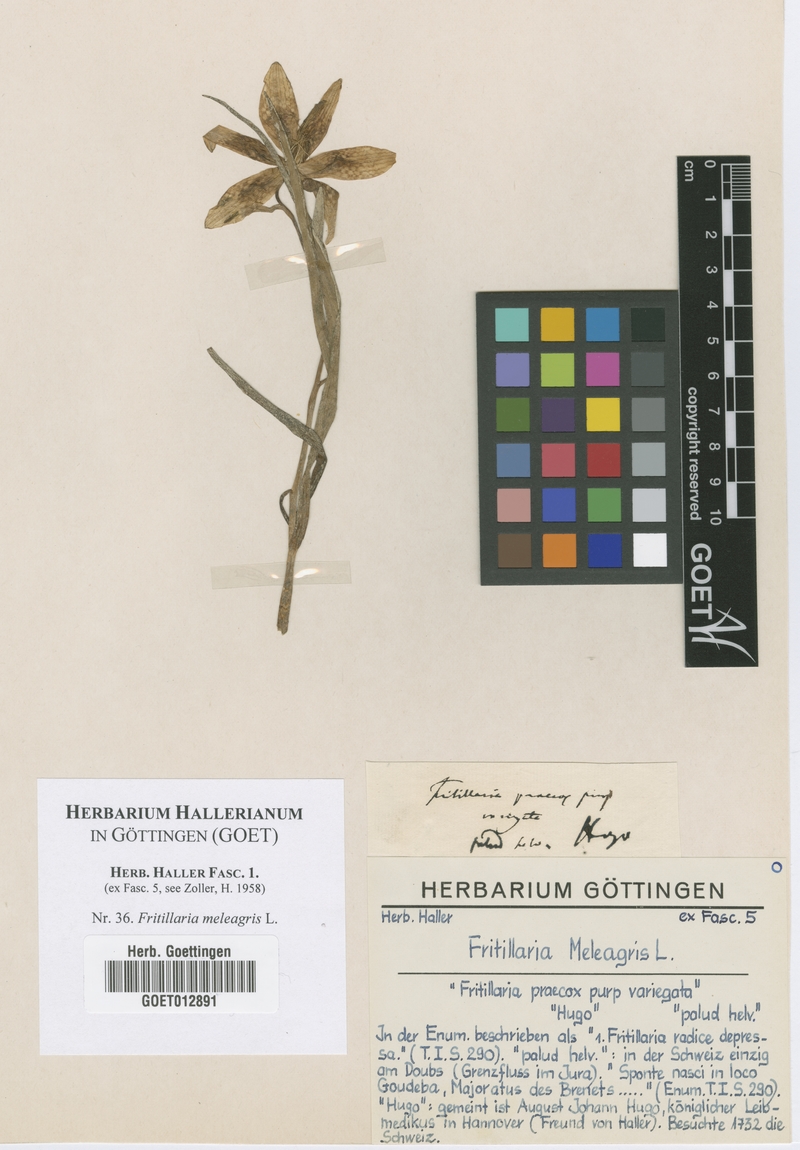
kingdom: Plantae
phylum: Tracheophyta
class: Liliopsida
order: Liliales
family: Liliaceae
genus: Fritillaria
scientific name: Fritillaria meleagris
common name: Fritillary
